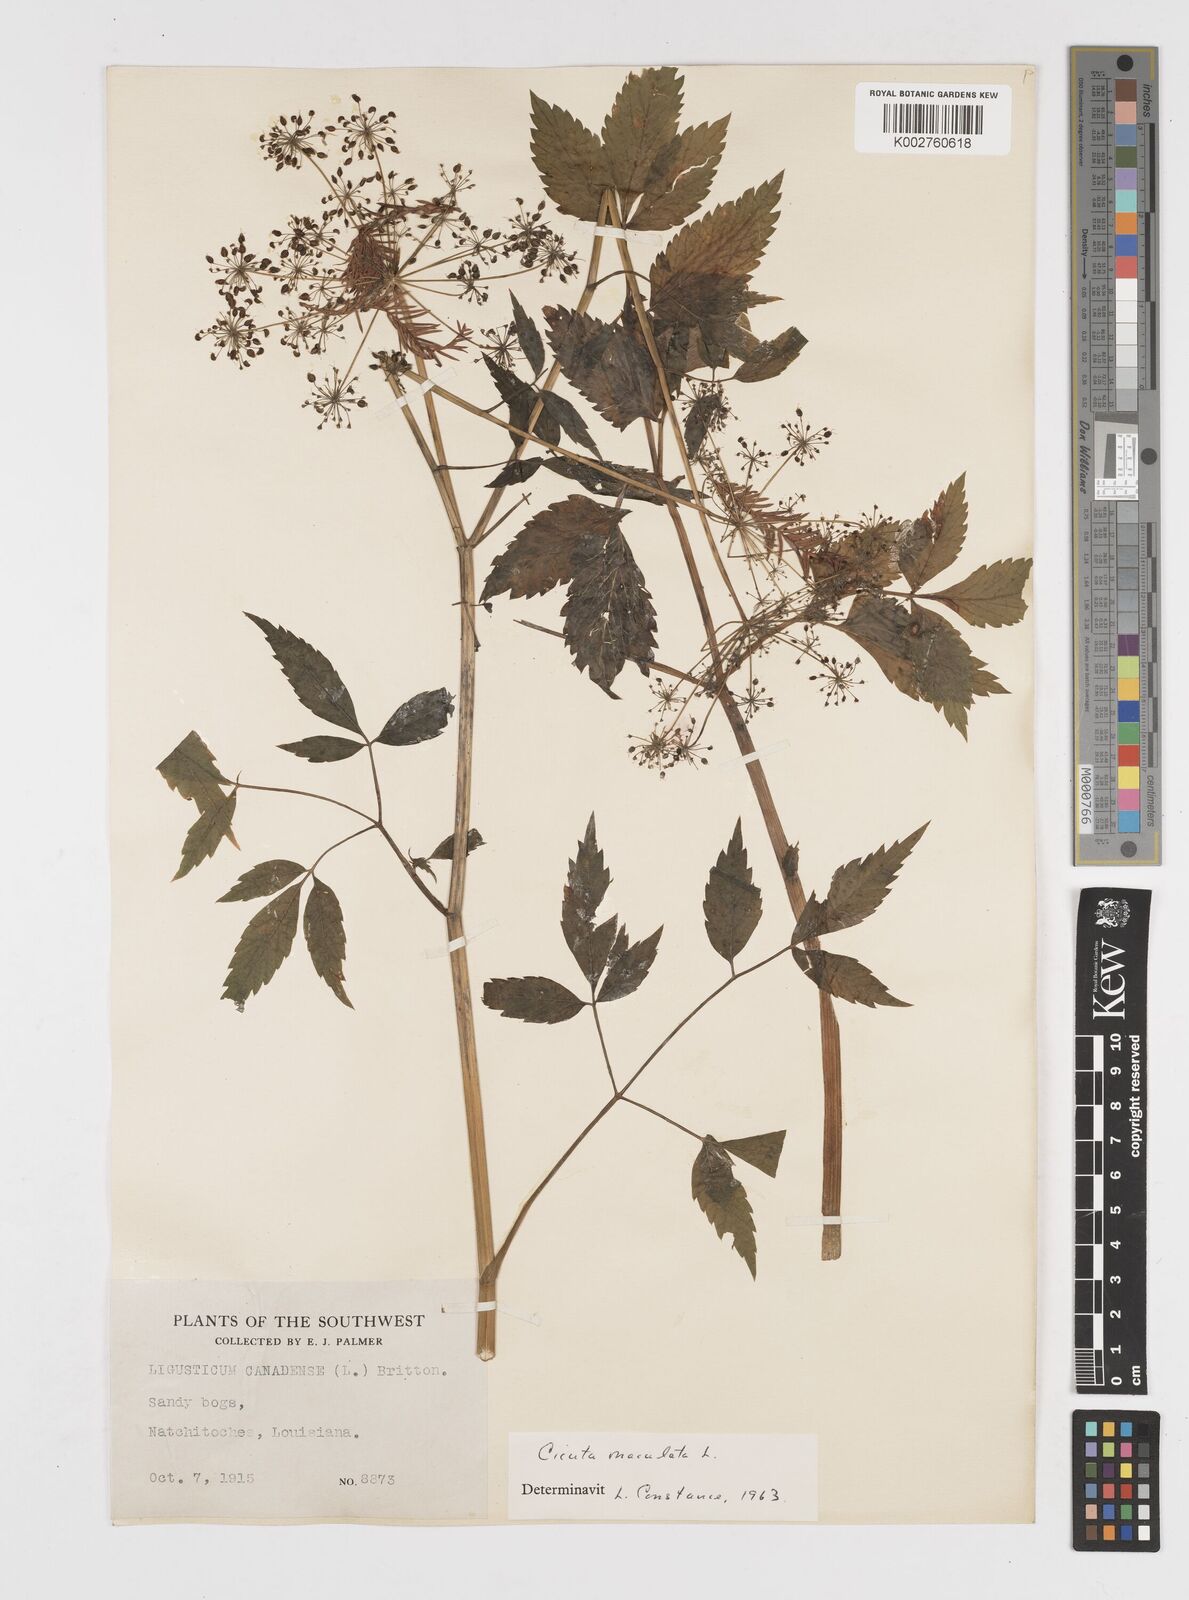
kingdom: Plantae
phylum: Tracheophyta
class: Magnoliopsida
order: Apiales
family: Apiaceae
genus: Cicuta
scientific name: Cicuta maculata
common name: Spotted cowbane
